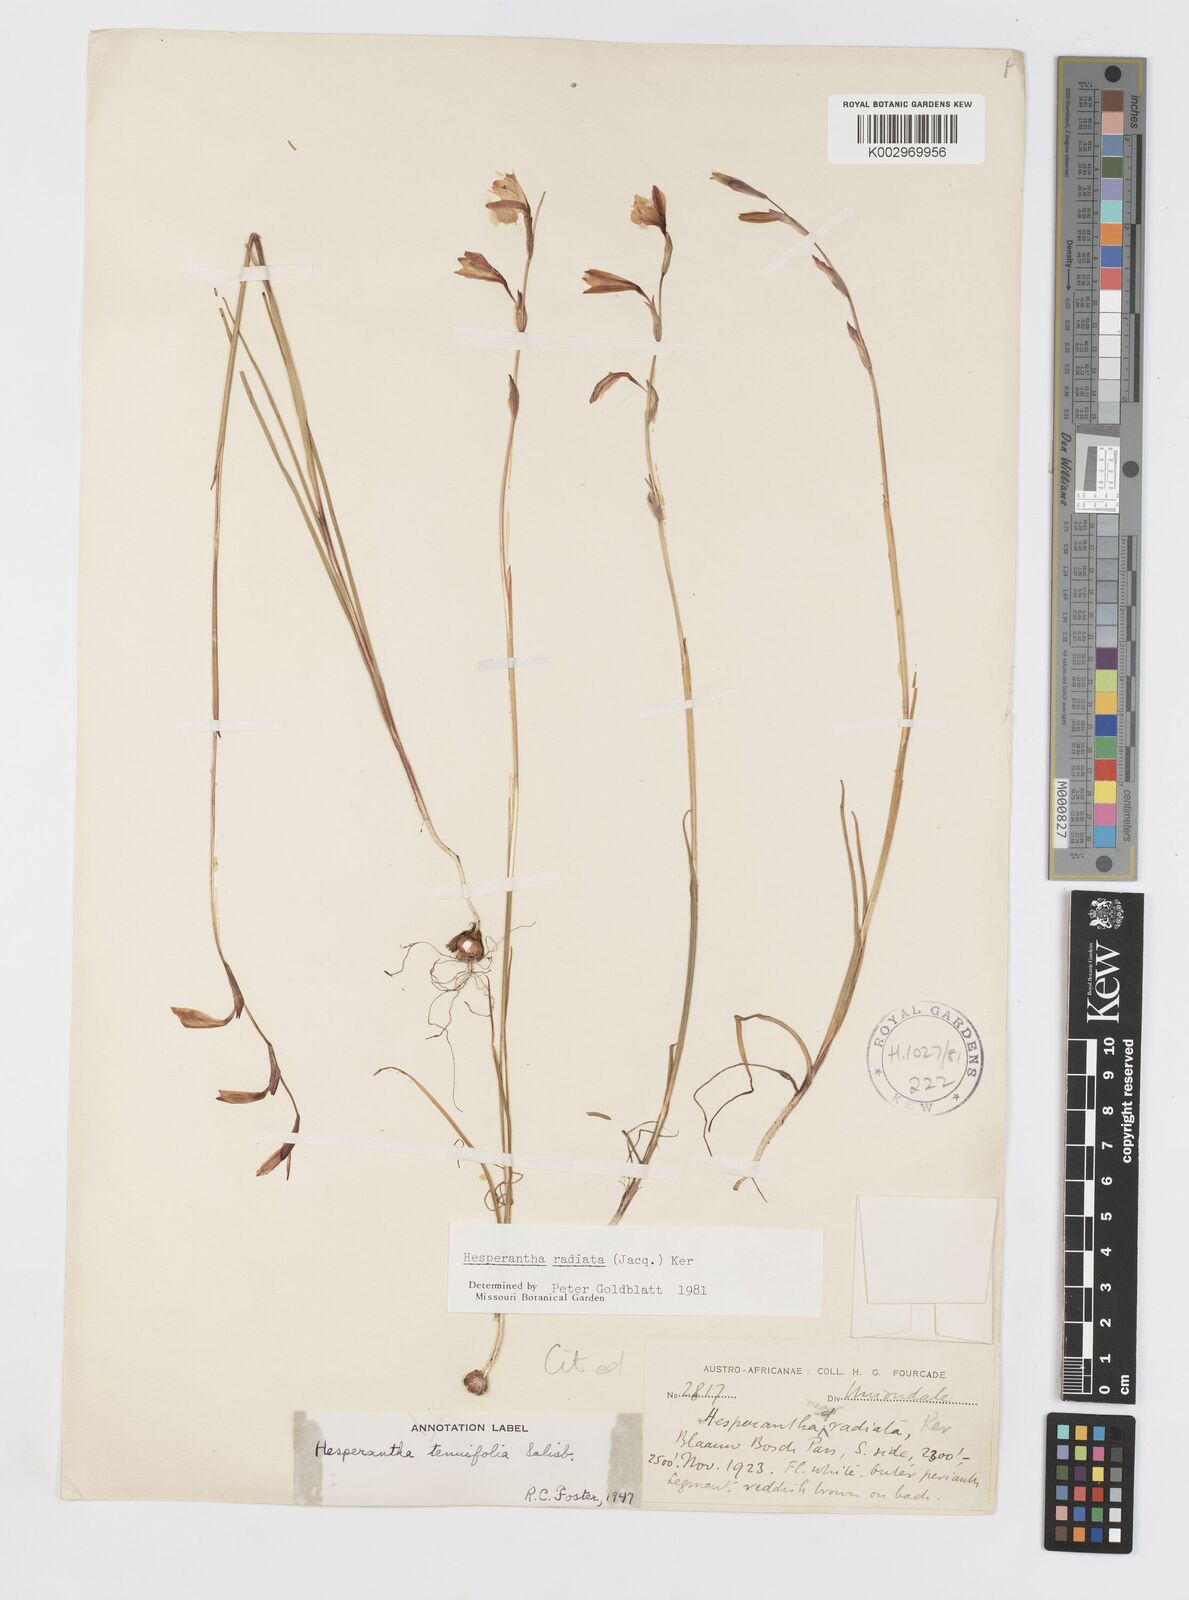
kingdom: Plantae
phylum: Tracheophyta
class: Liliopsida
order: Asparagales
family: Iridaceae
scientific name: Iridaceae
